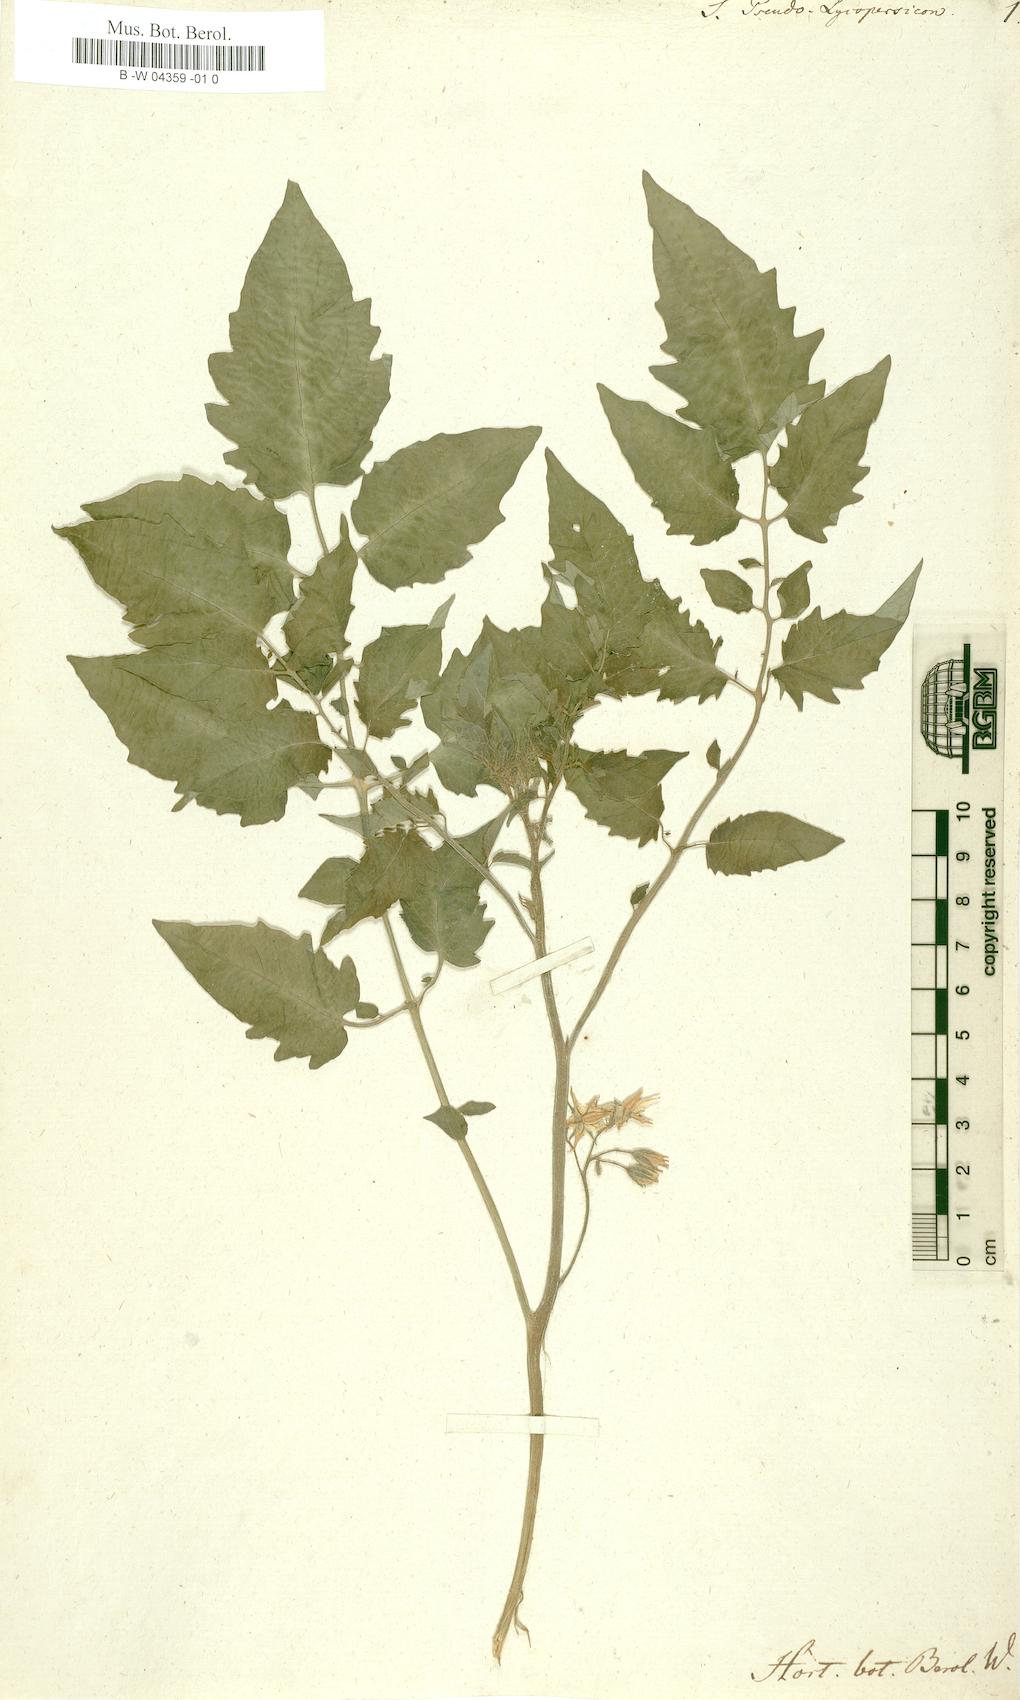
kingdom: Plantae
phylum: Tracheophyta
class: Magnoliopsida
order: Solanales
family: Solanaceae
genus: Solanum
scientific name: Solanum lycopersicum
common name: Garden tomato
